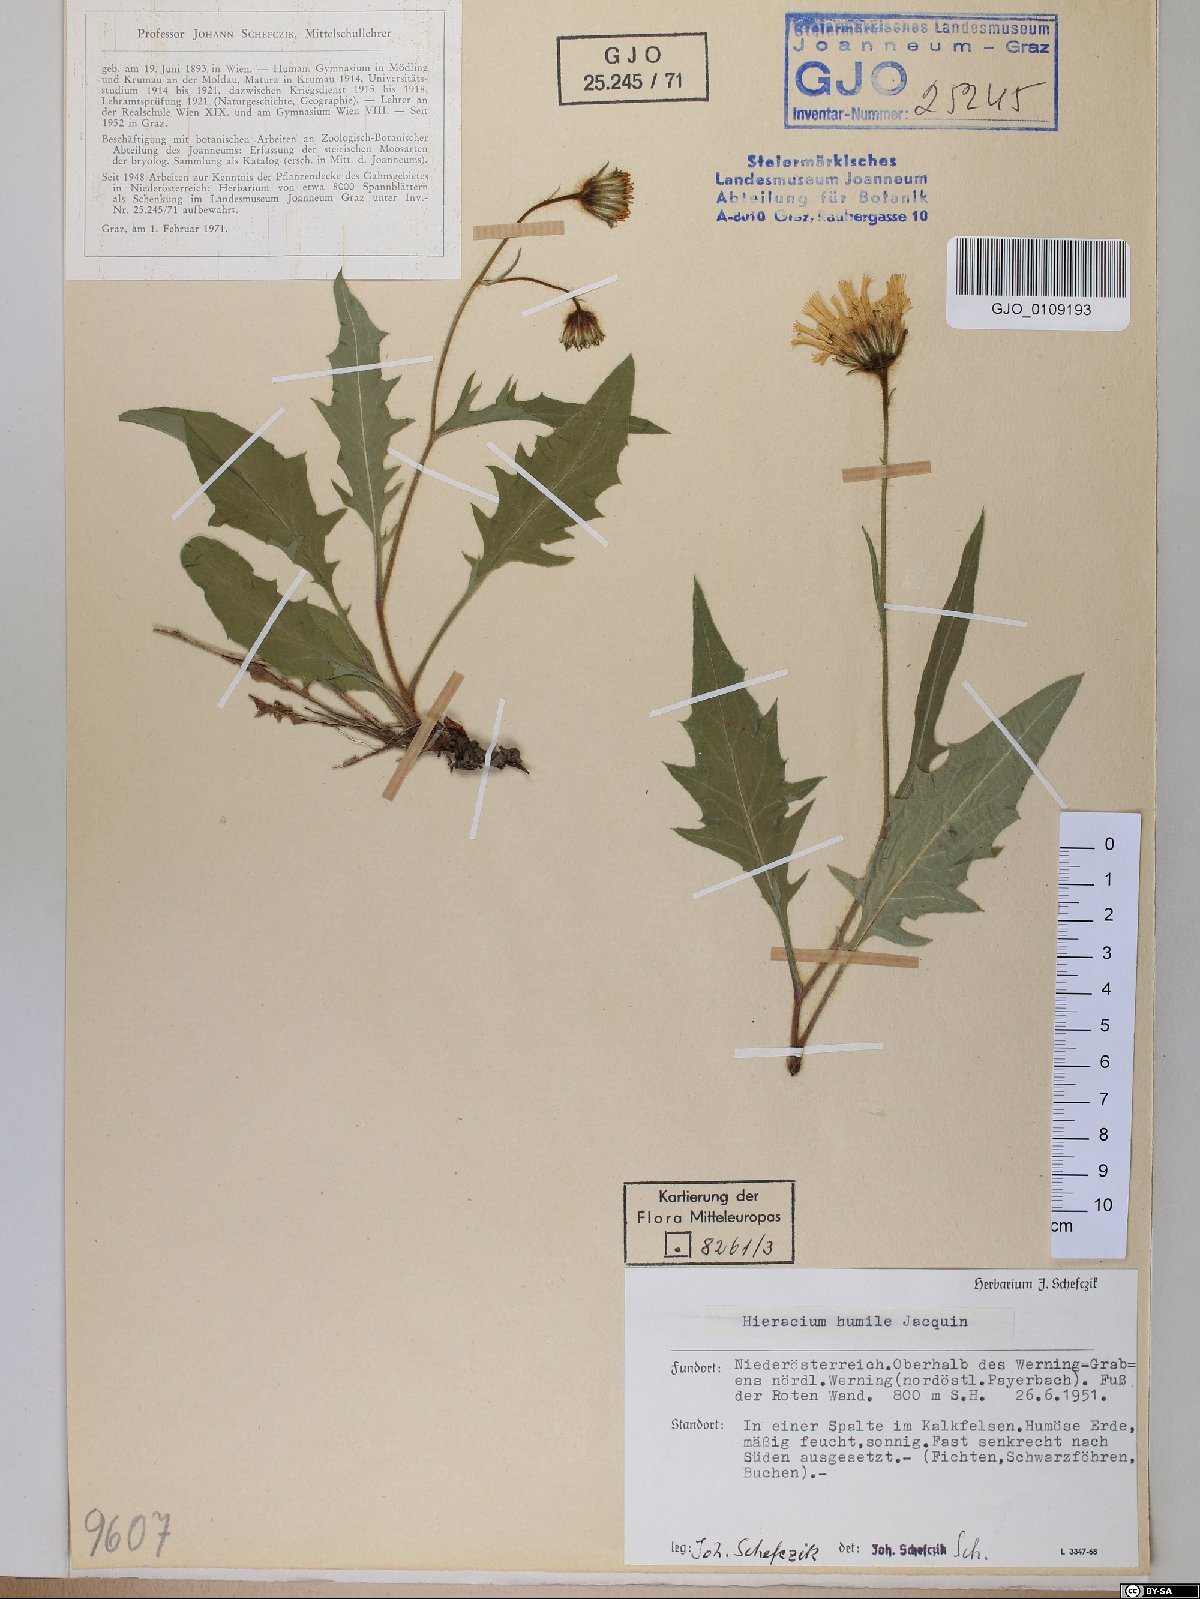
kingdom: Plantae
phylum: Tracheophyta
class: Magnoliopsida
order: Asterales
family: Asteraceae
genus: Hieracium
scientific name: Hieracium humile
